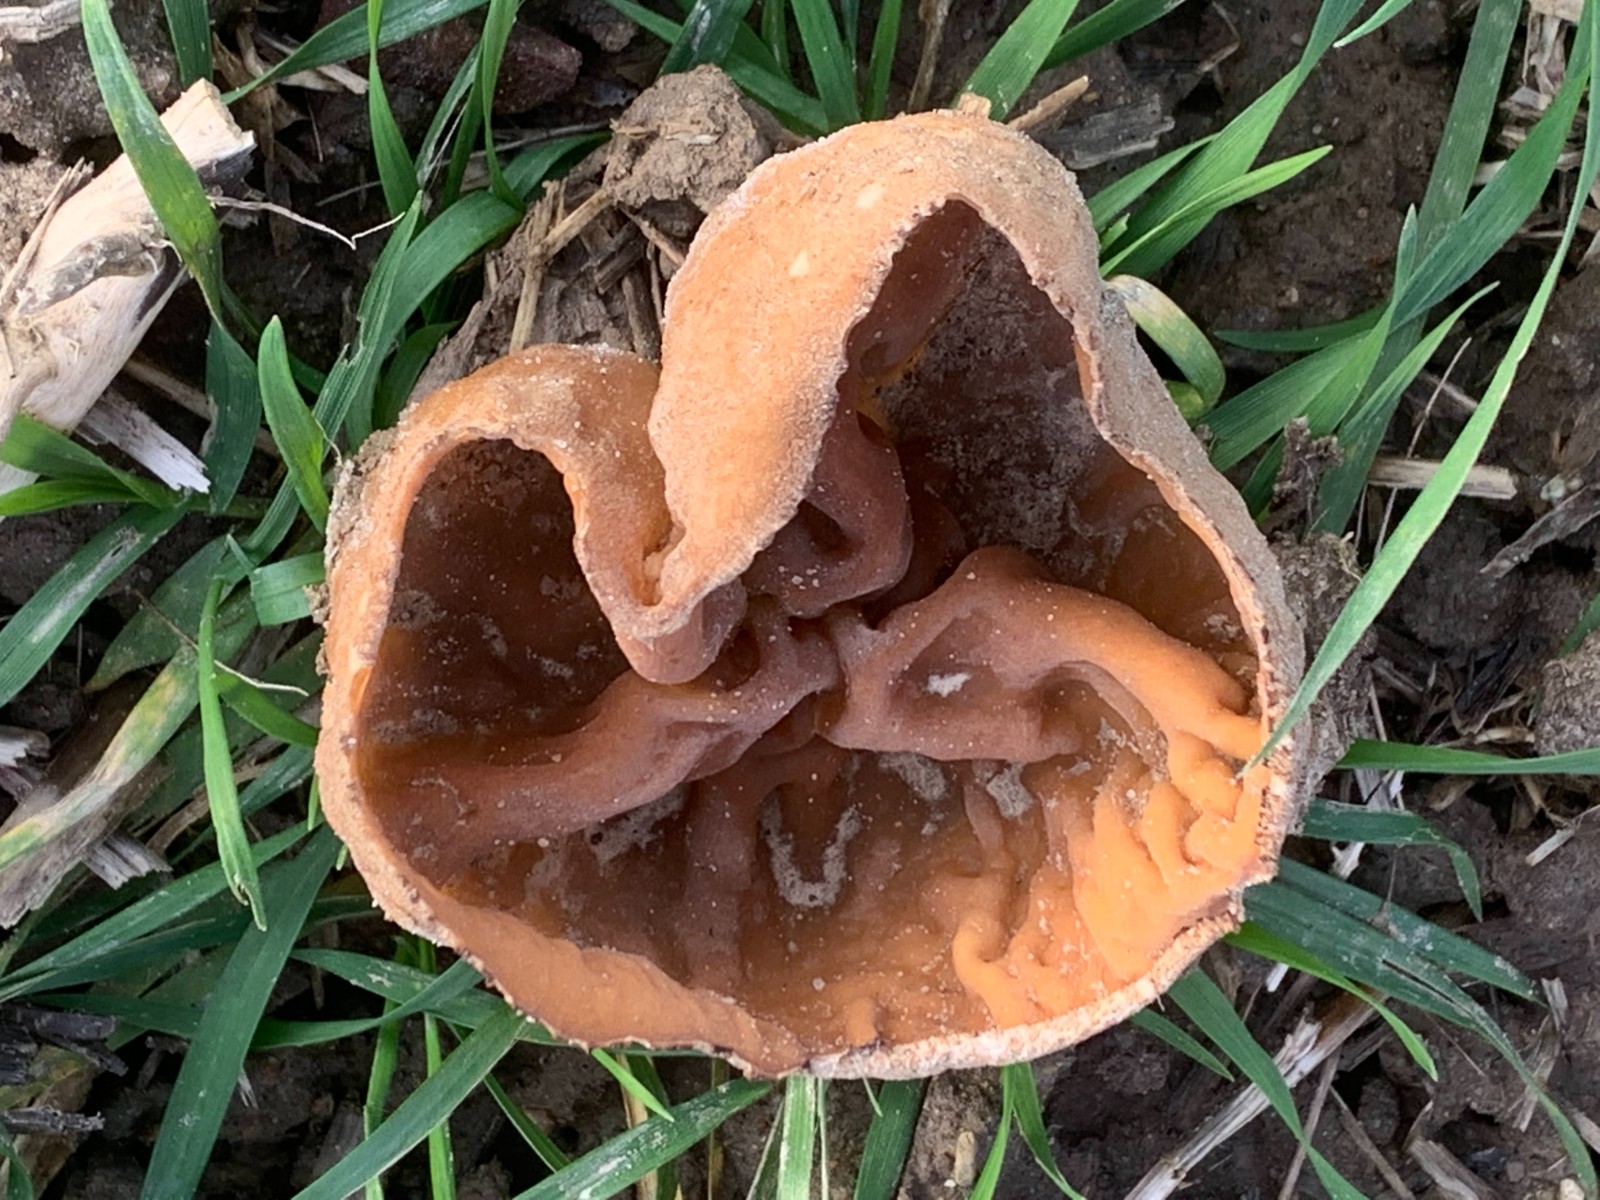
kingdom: Fungi
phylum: Ascomycota
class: Pezizomycetes
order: Pezizales
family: Pezizaceae
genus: Peziza
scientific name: Peziza vesiculosa
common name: blære-bægersvamp
